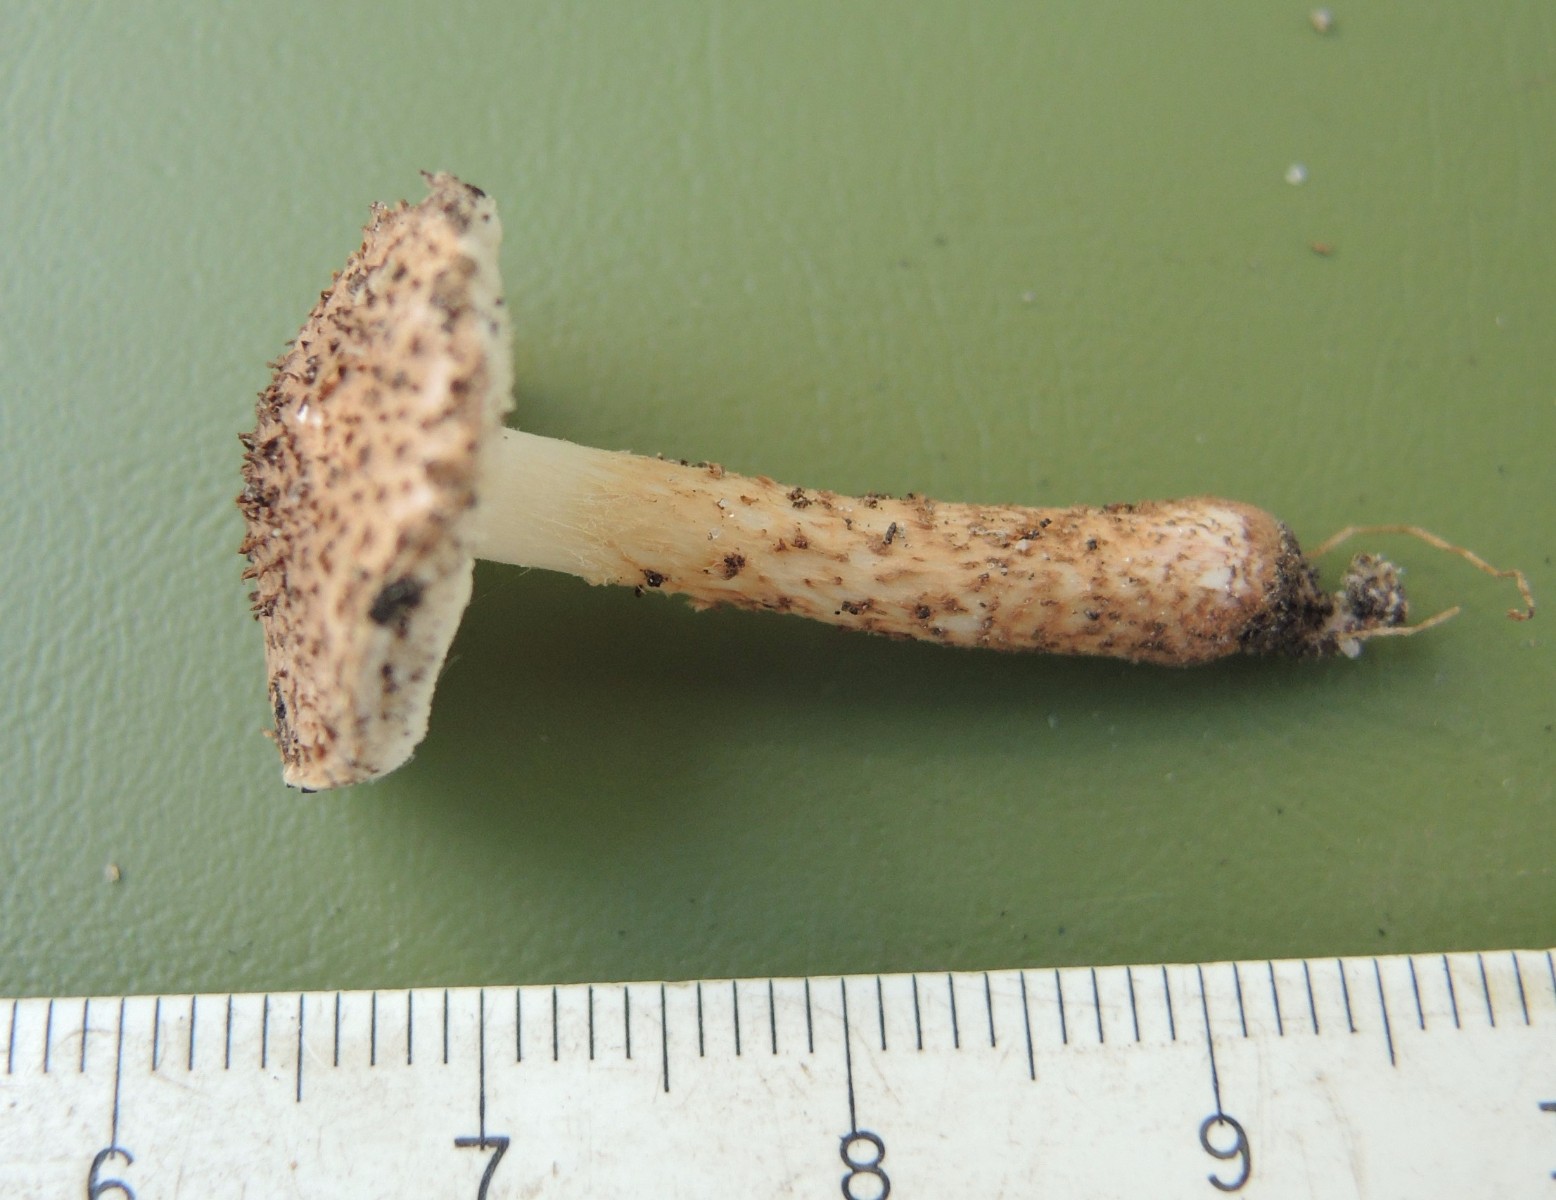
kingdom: Fungi
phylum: Basidiomycota
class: Agaricomycetes
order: Agaricales
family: Agaricaceae
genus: Echinoderma
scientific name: Echinoderma echinaceum
